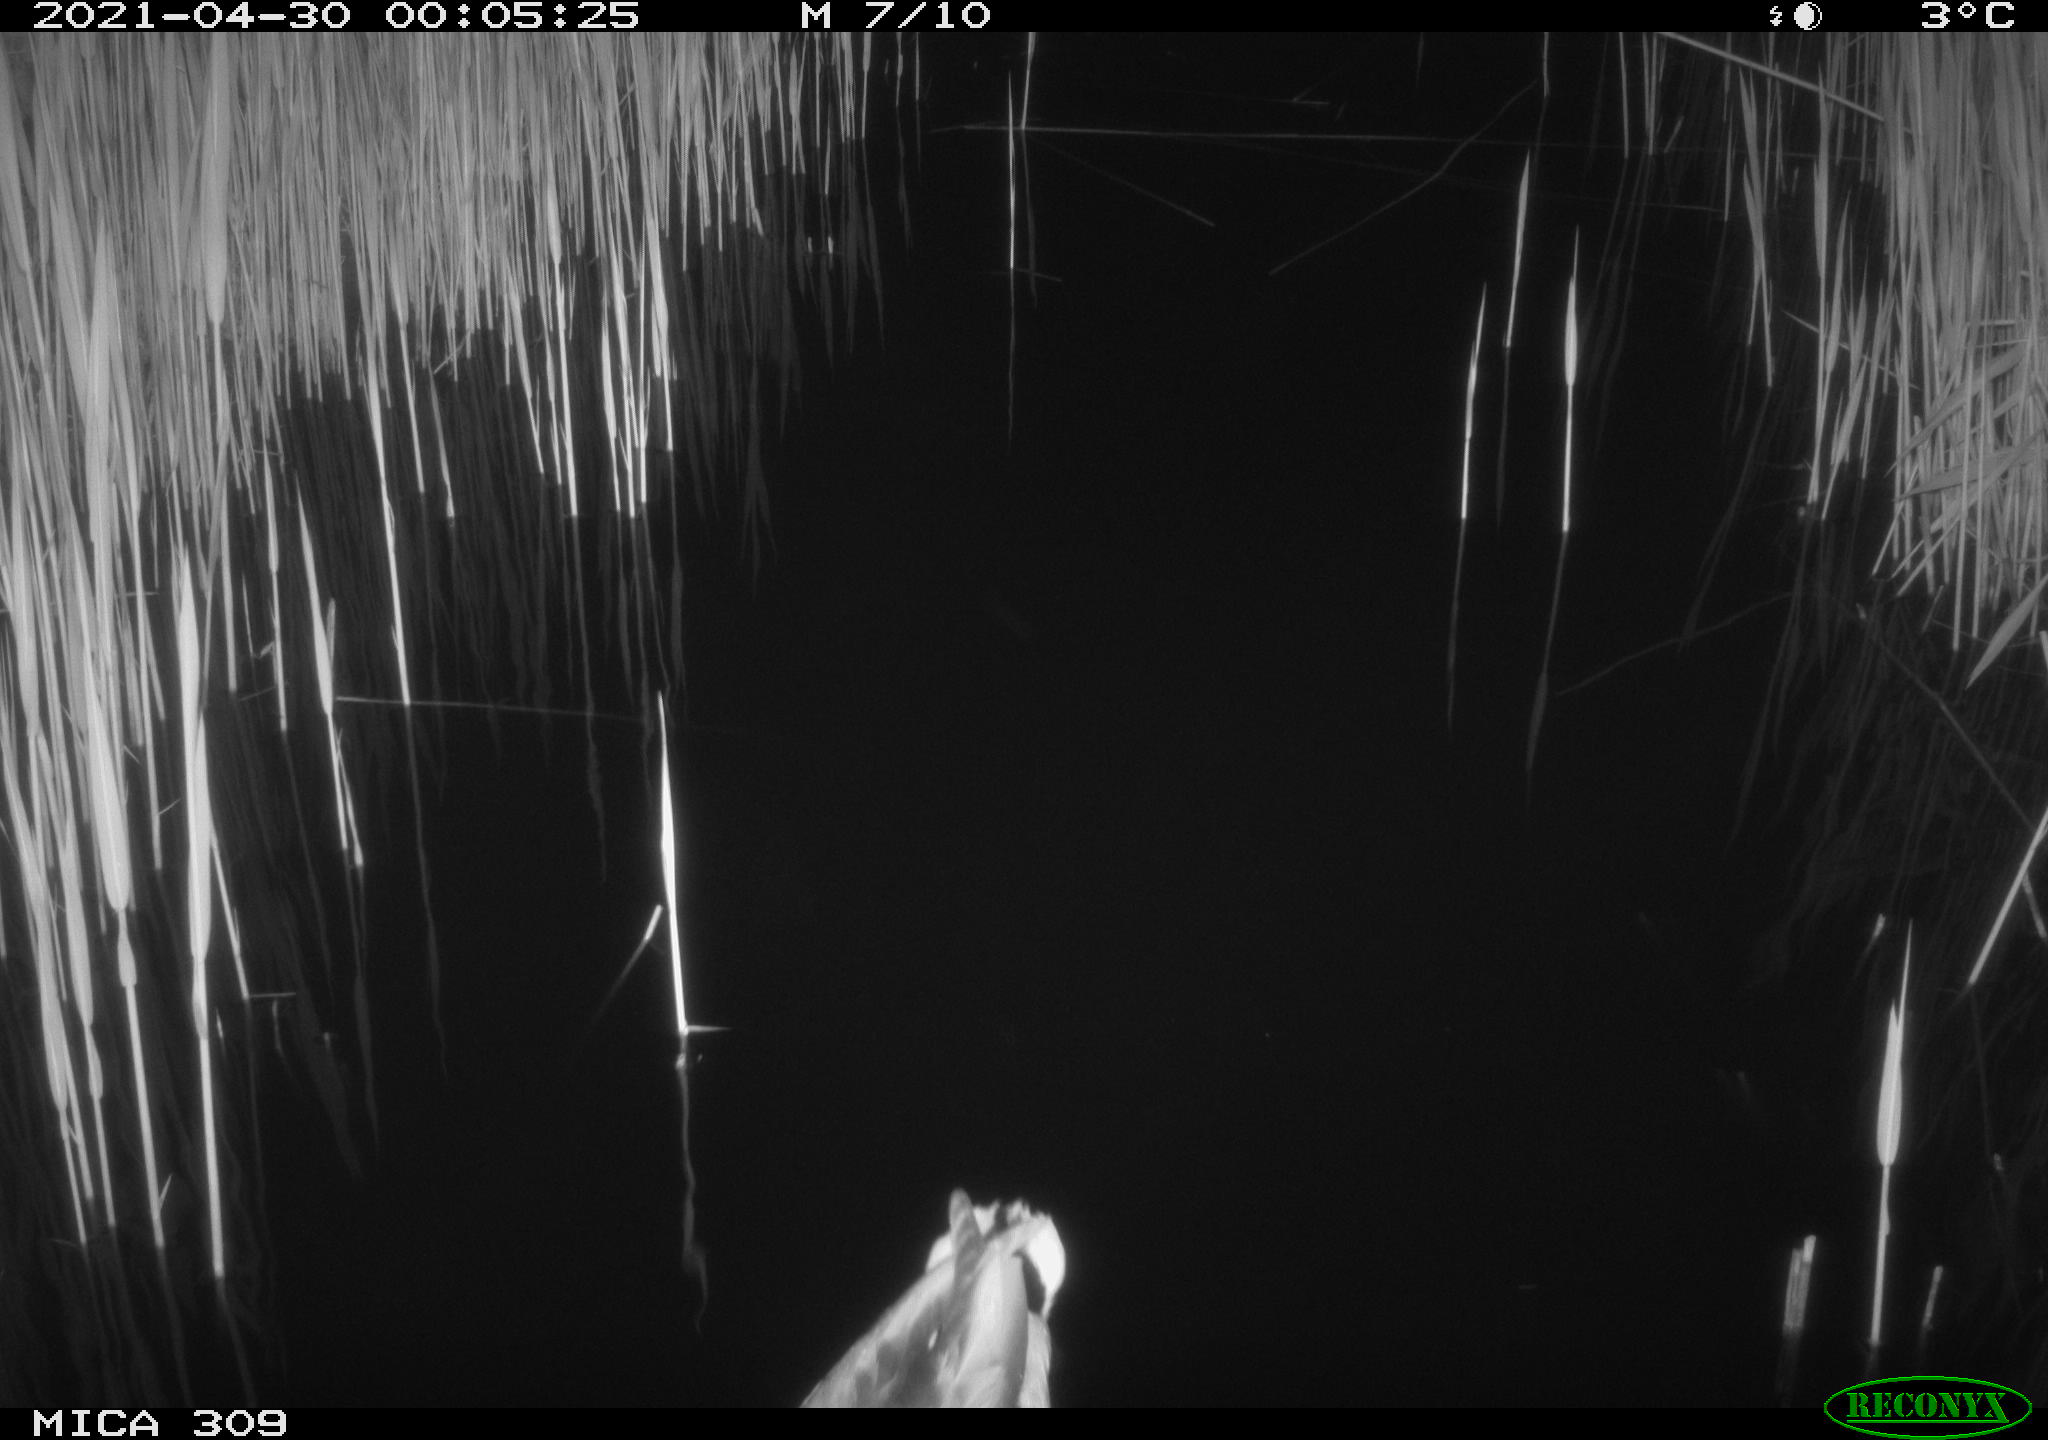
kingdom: Animalia
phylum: Chordata
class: Aves
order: Anseriformes
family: Anatidae
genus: Anas
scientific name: Anas platyrhynchos
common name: Mallard
